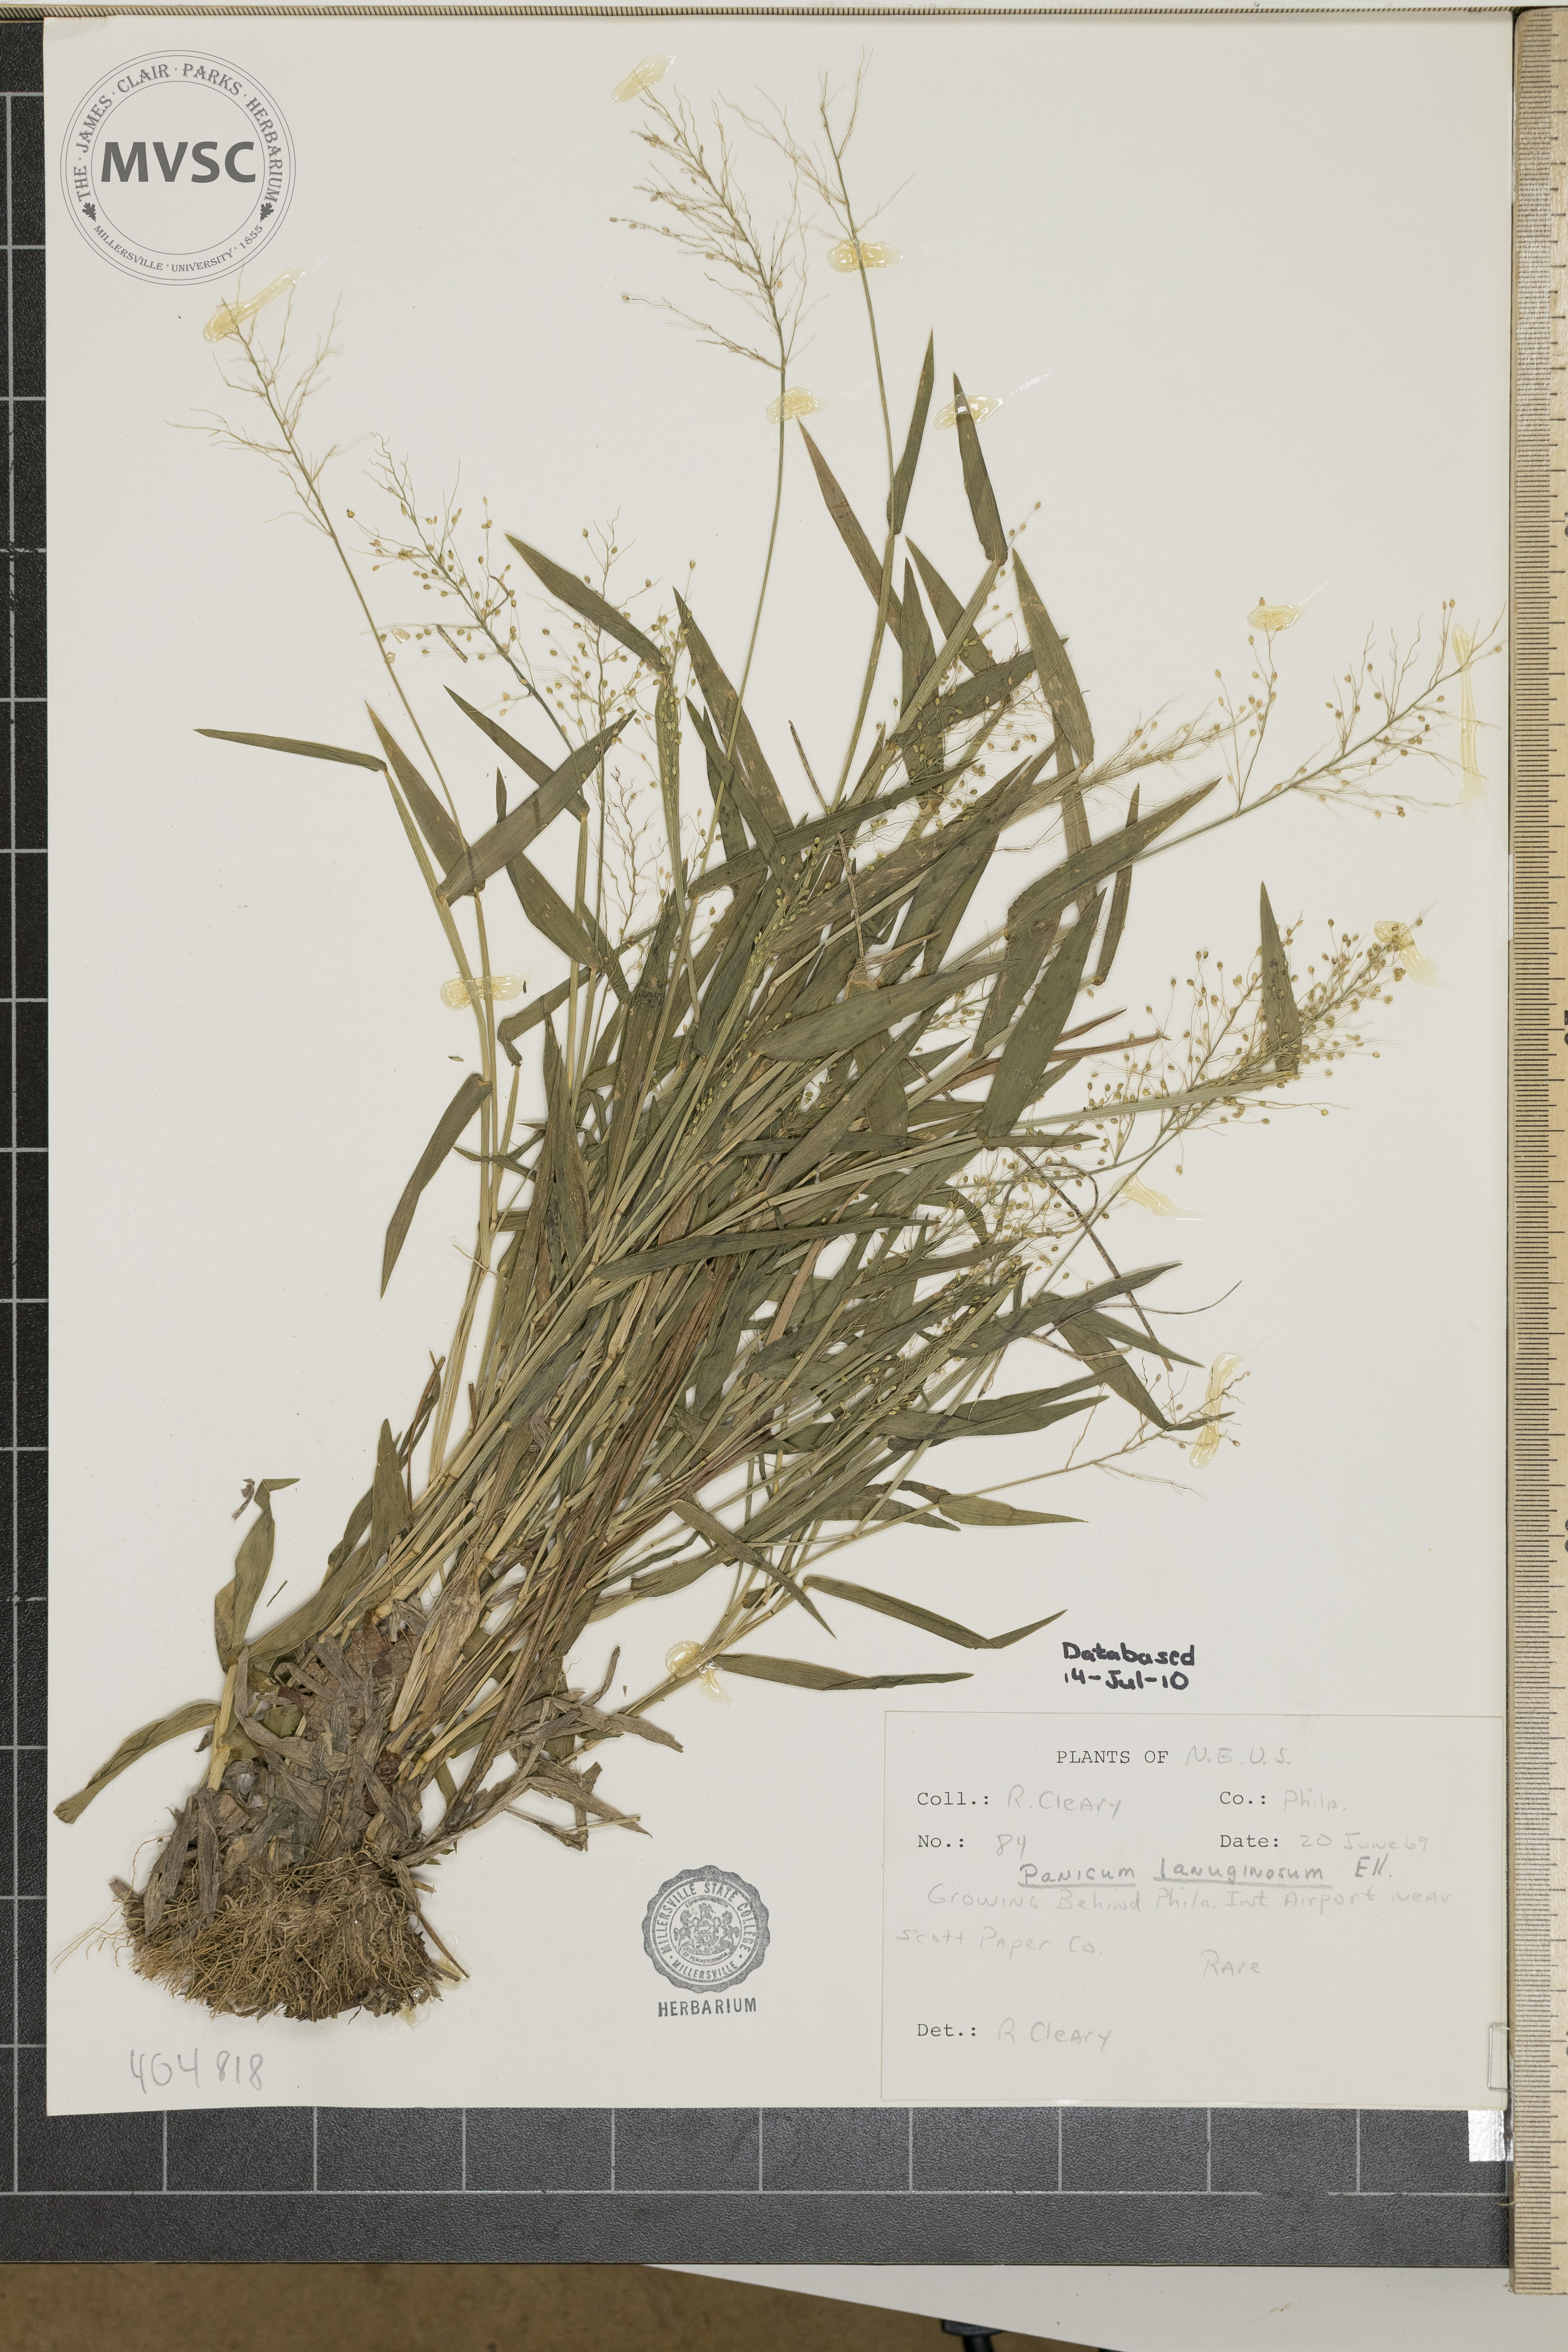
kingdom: Plantae
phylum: Tracheophyta
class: Liliopsida
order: Poales
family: Poaceae
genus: Dichanthelium
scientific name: Dichanthelium
